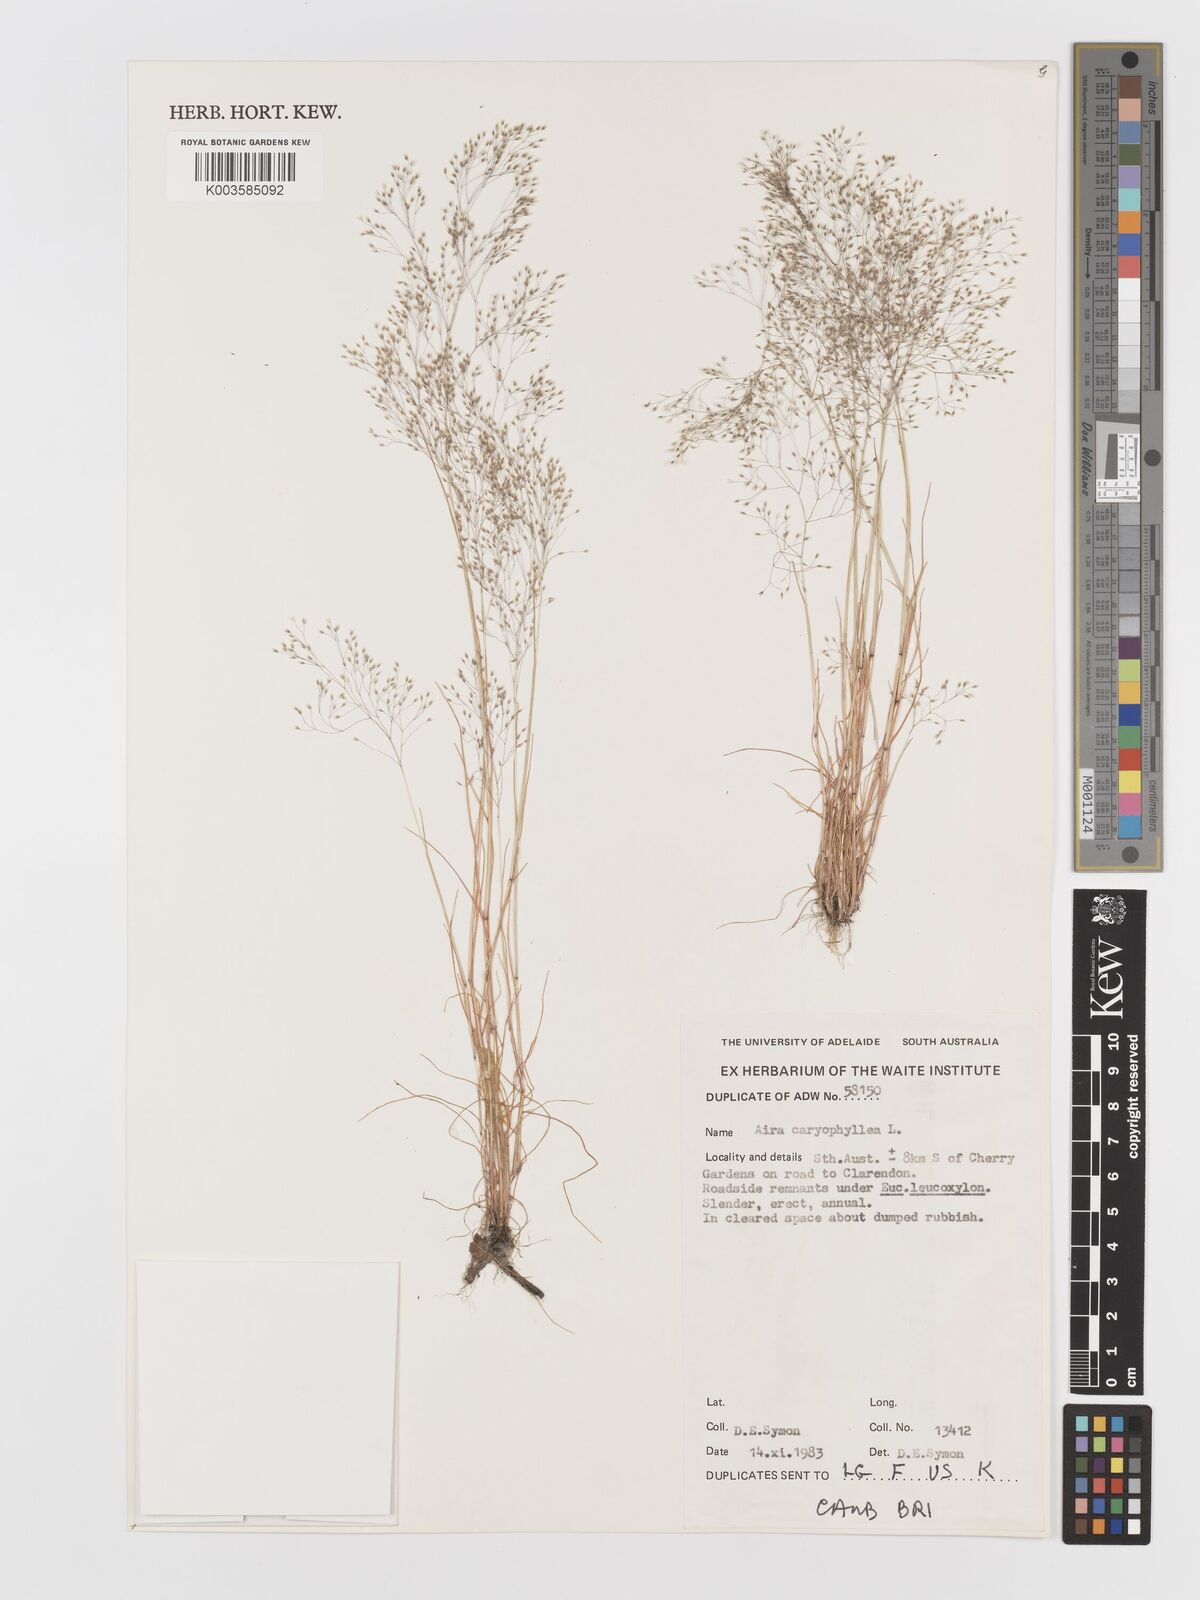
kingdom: Plantae
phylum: Tracheophyta
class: Liliopsida
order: Poales
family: Poaceae
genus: Aira
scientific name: Aira caryophyllea
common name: Silver hairgrass
